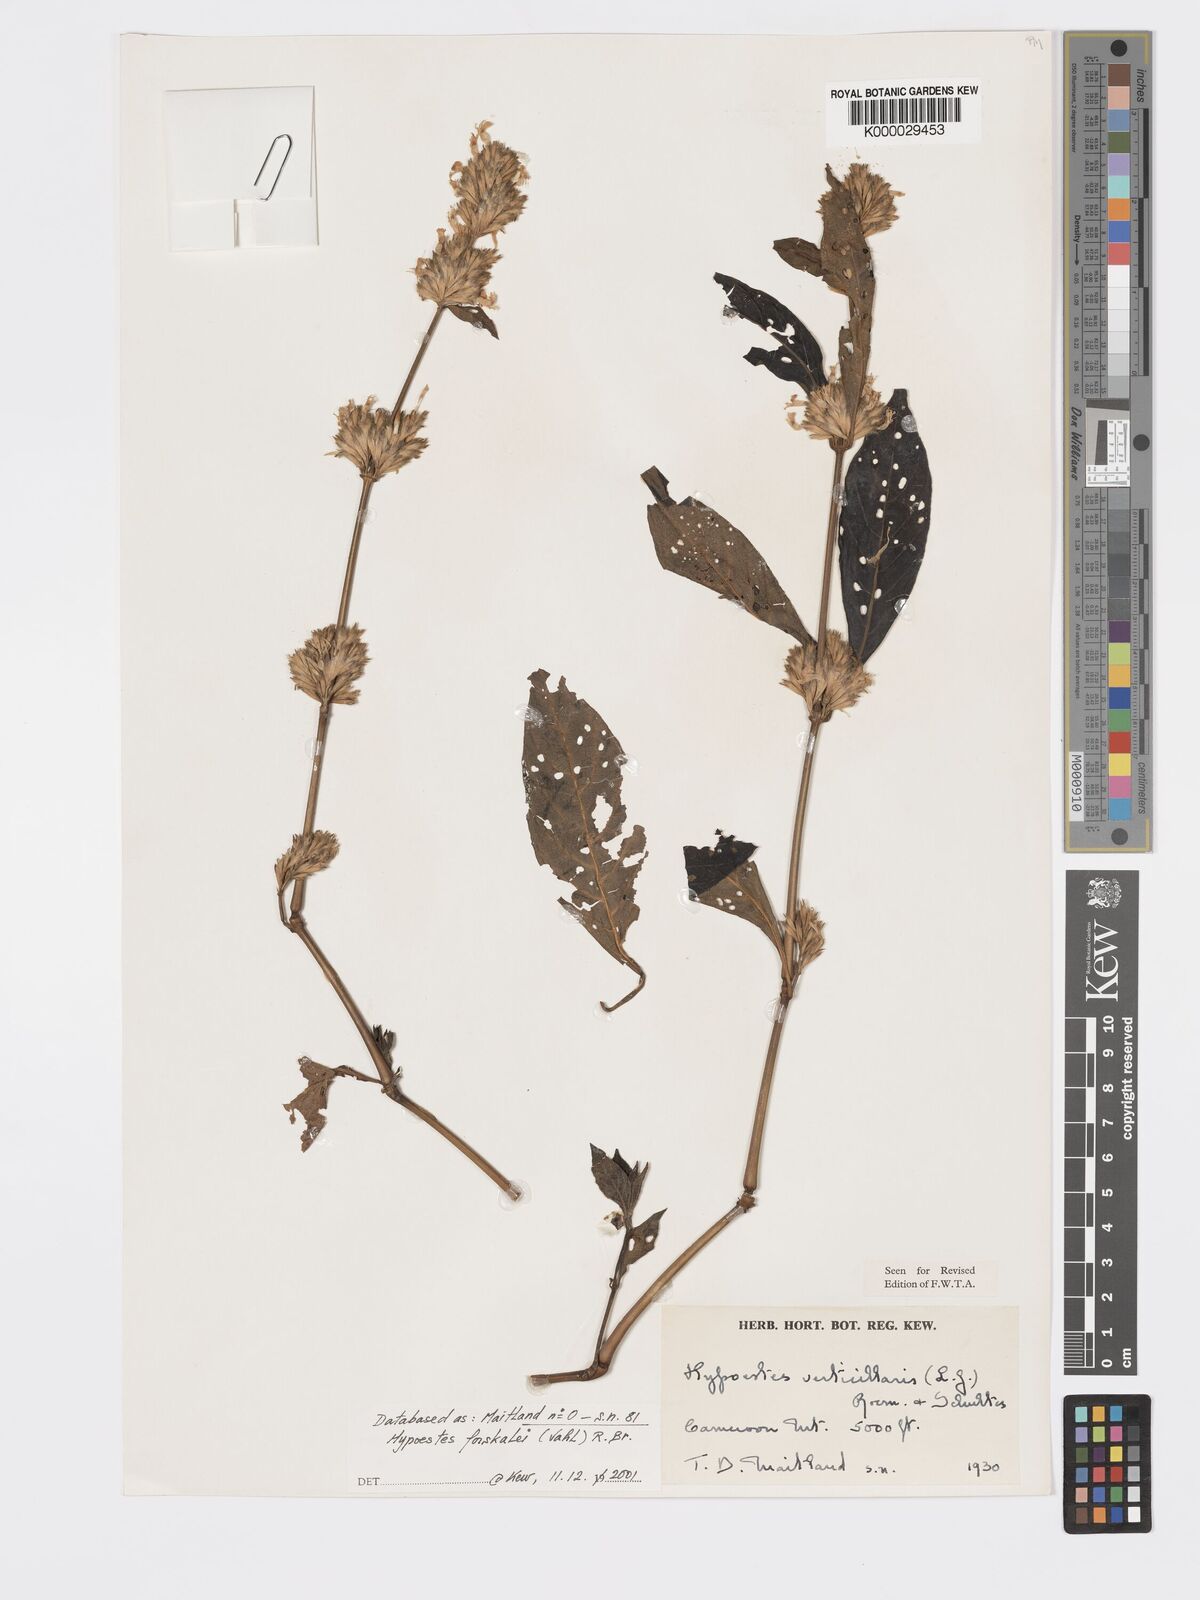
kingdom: Plantae
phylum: Tracheophyta
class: Magnoliopsida
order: Lamiales
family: Acanthaceae
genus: Hypoestes
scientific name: Hypoestes
